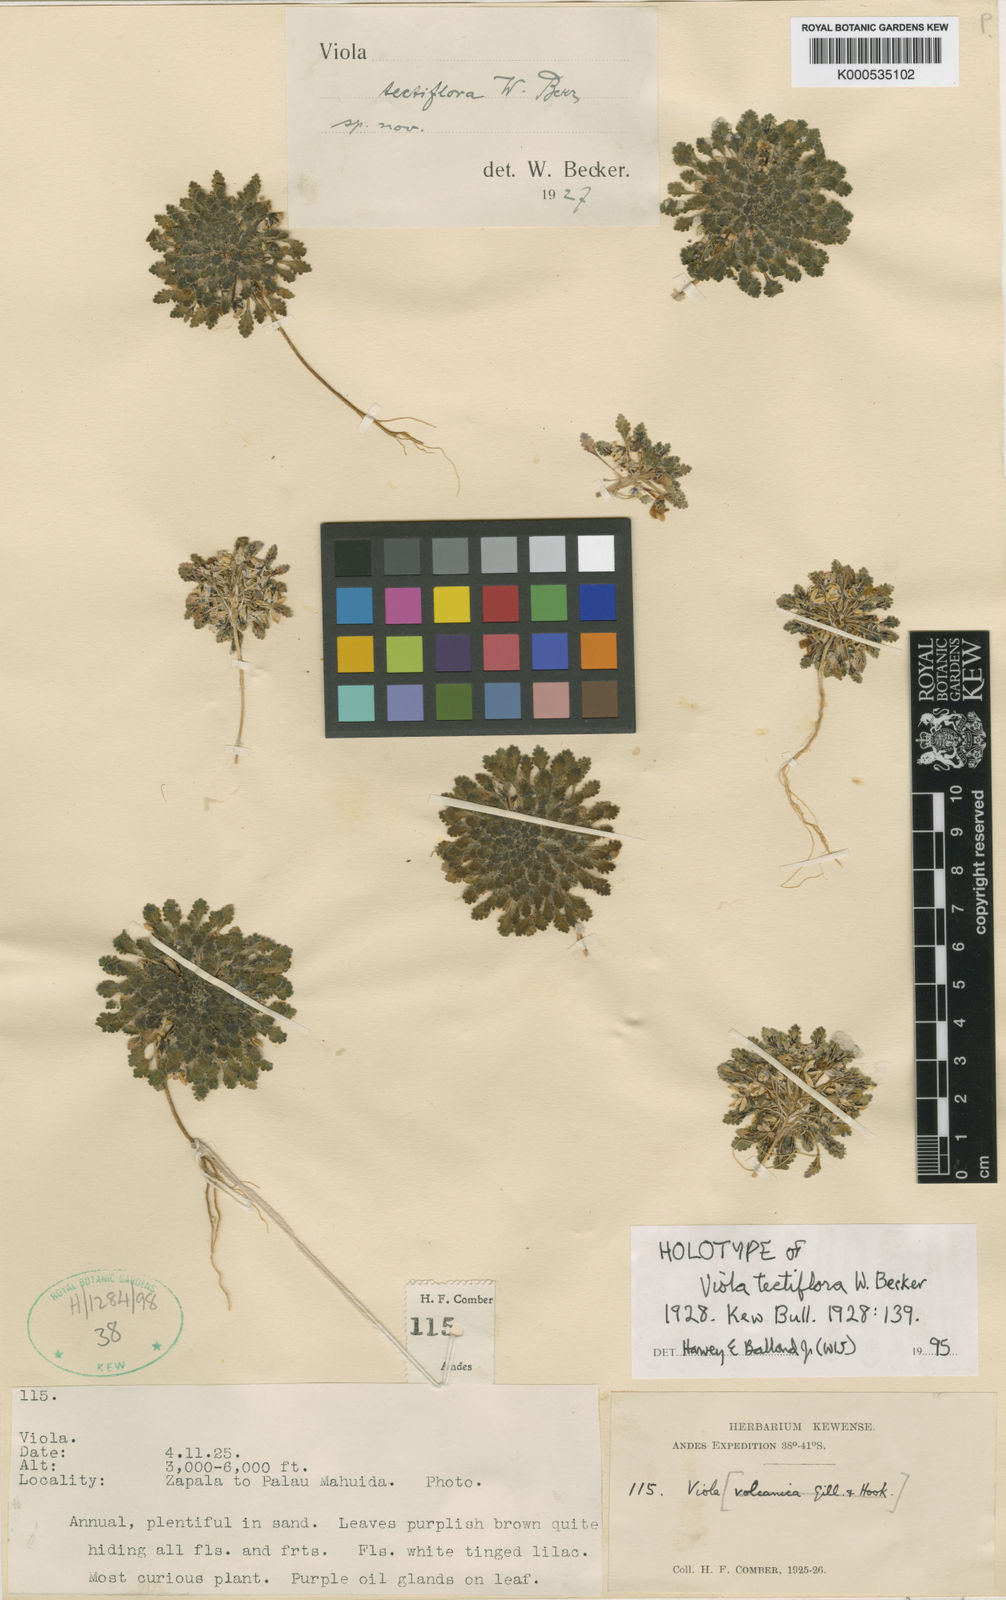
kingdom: Plantae
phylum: Tracheophyta
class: Magnoliopsida
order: Malpighiales
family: Violaceae
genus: Viola
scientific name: Viola tectiflora
